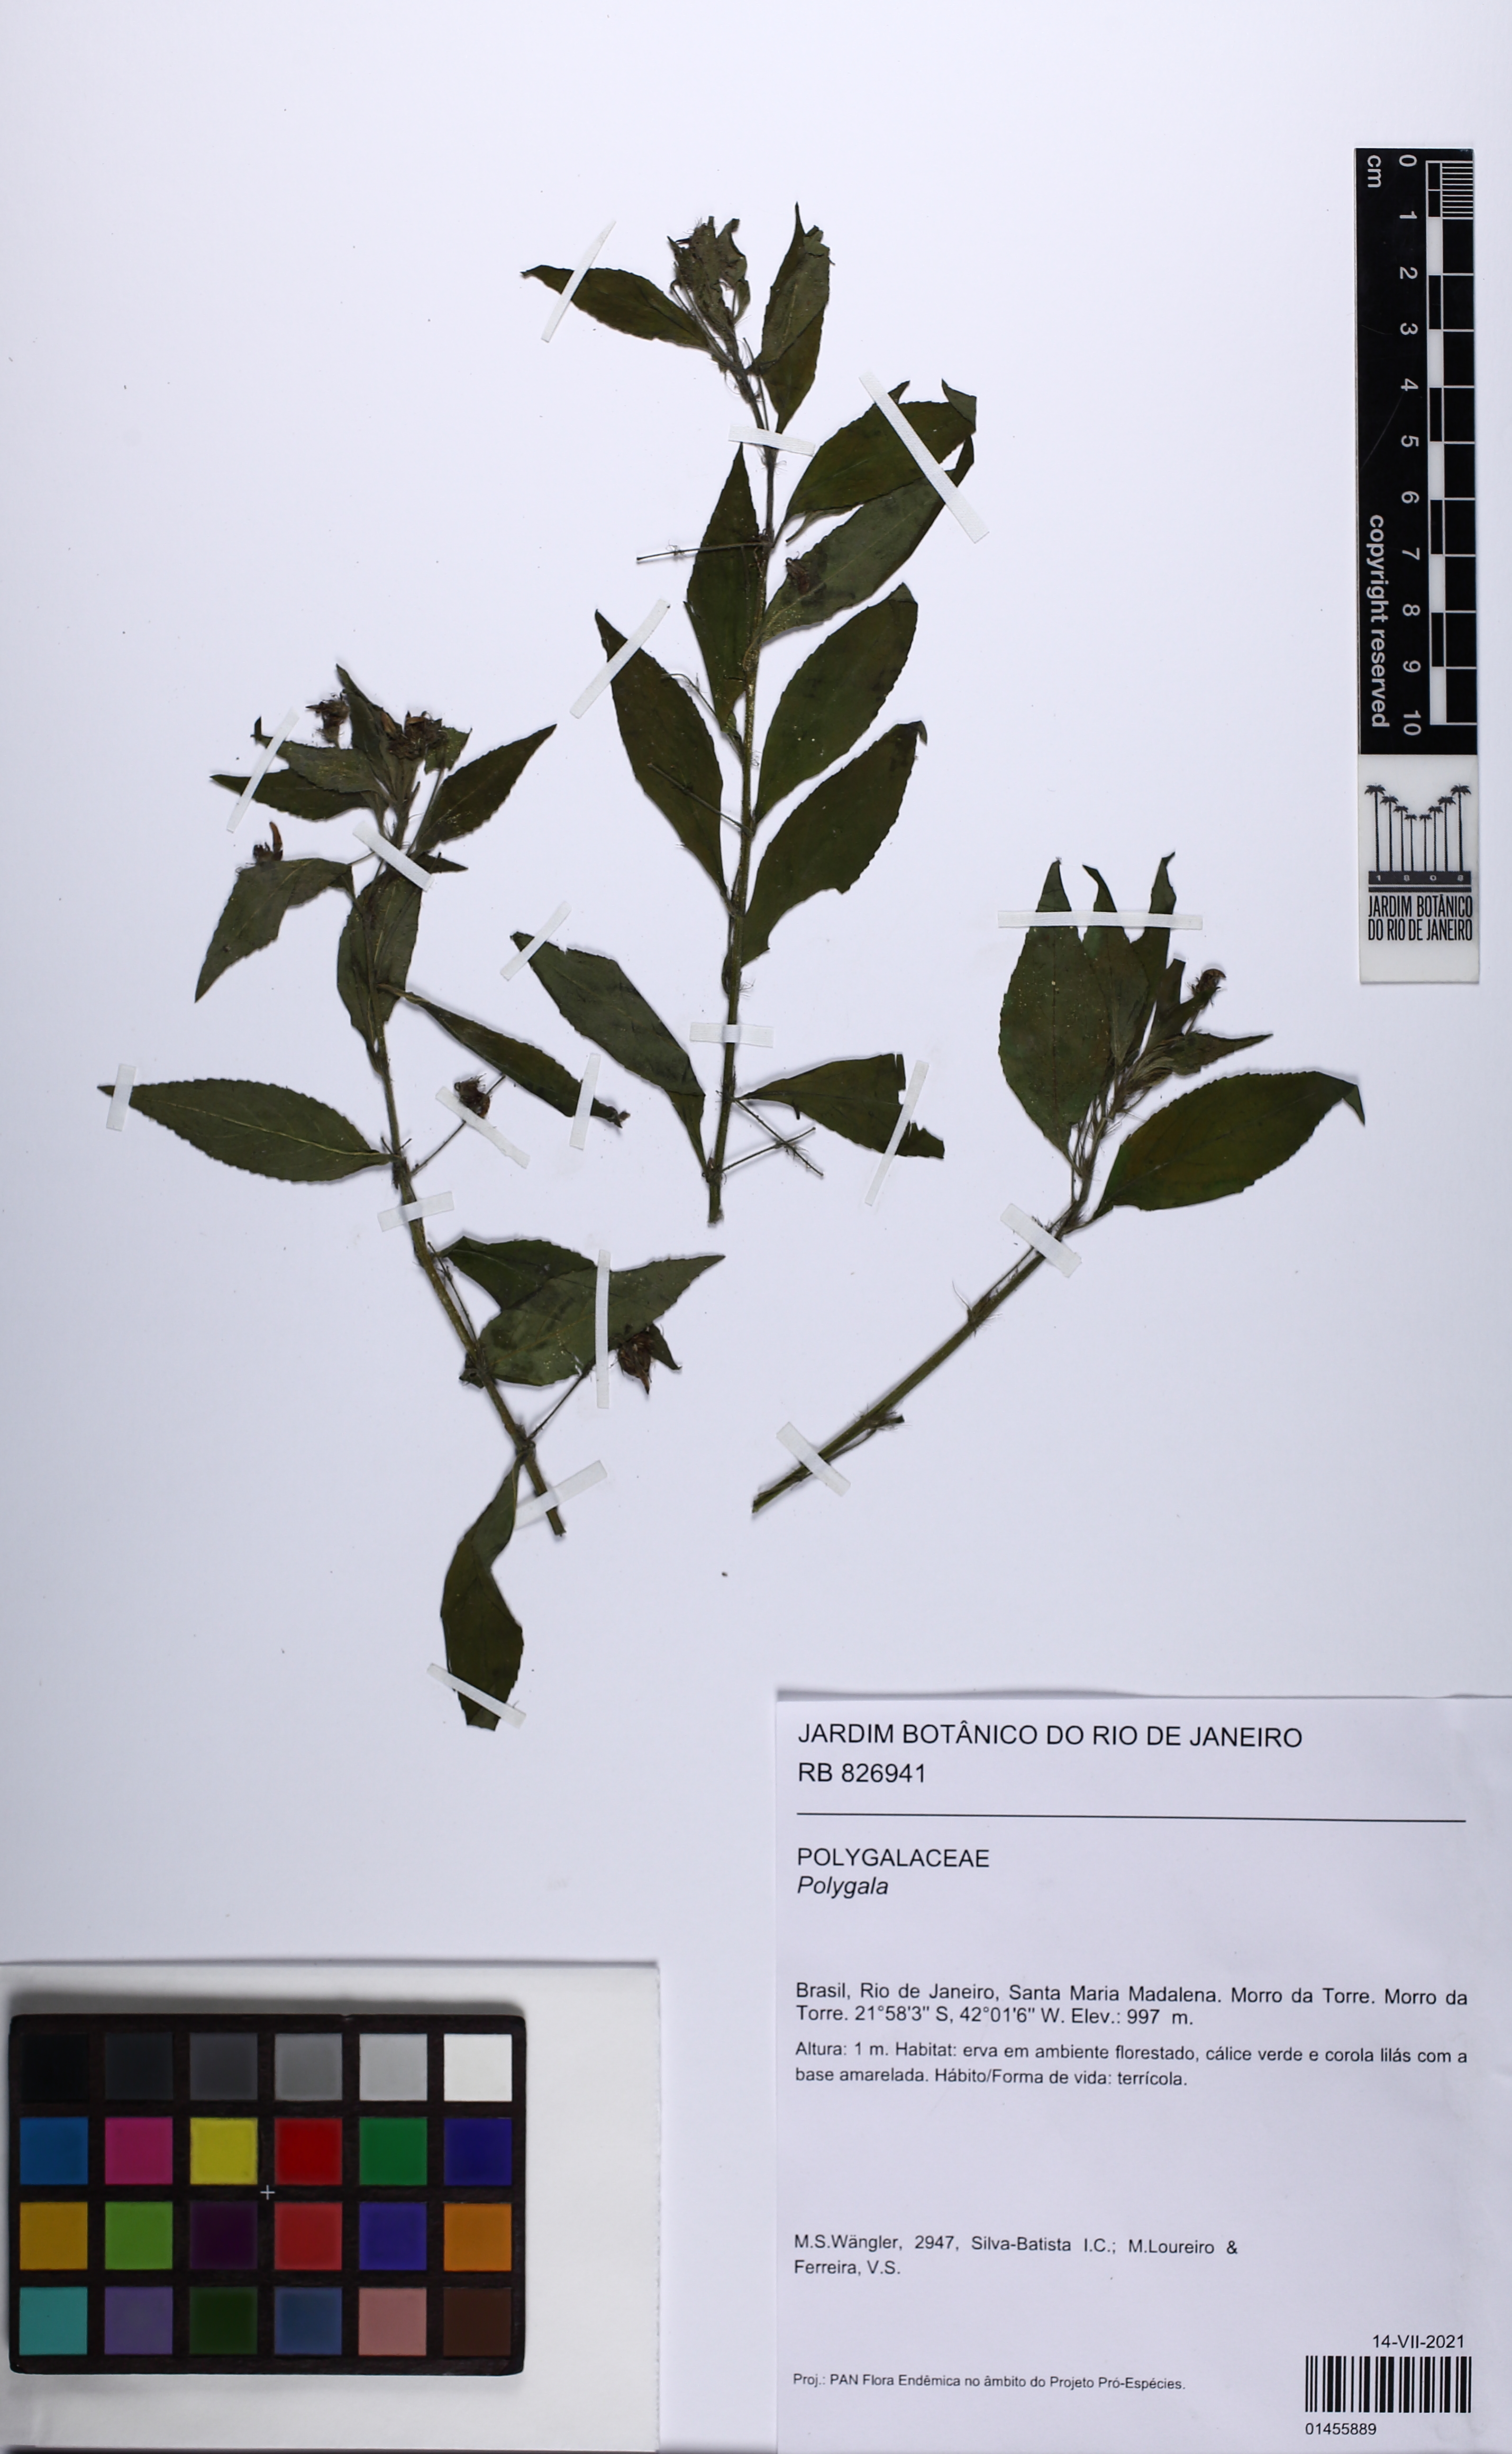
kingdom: Plantae
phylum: Tracheophyta
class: Magnoliopsida
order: Fabales
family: Polygalaceae
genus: Polygala
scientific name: Polygala
